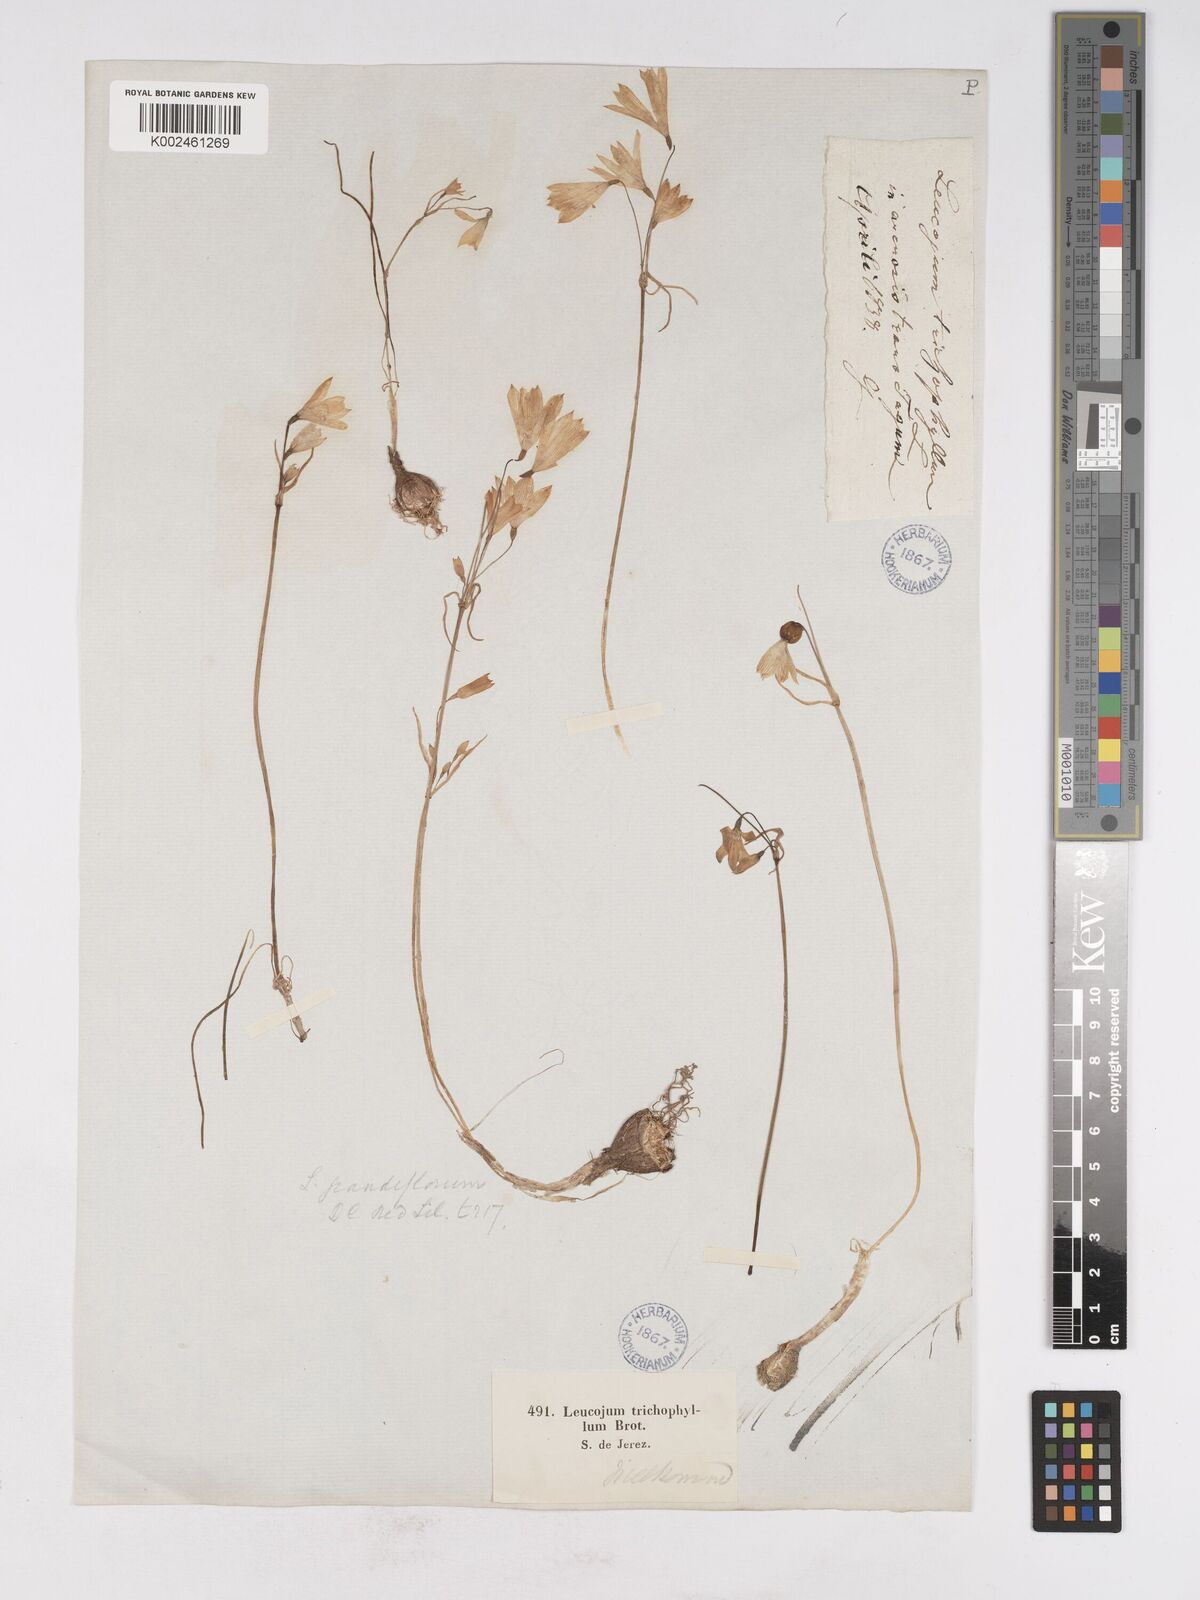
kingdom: Plantae
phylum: Tracheophyta
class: Liliopsida
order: Asparagales
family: Amaryllidaceae
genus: Acis
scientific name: Acis trichophylla
